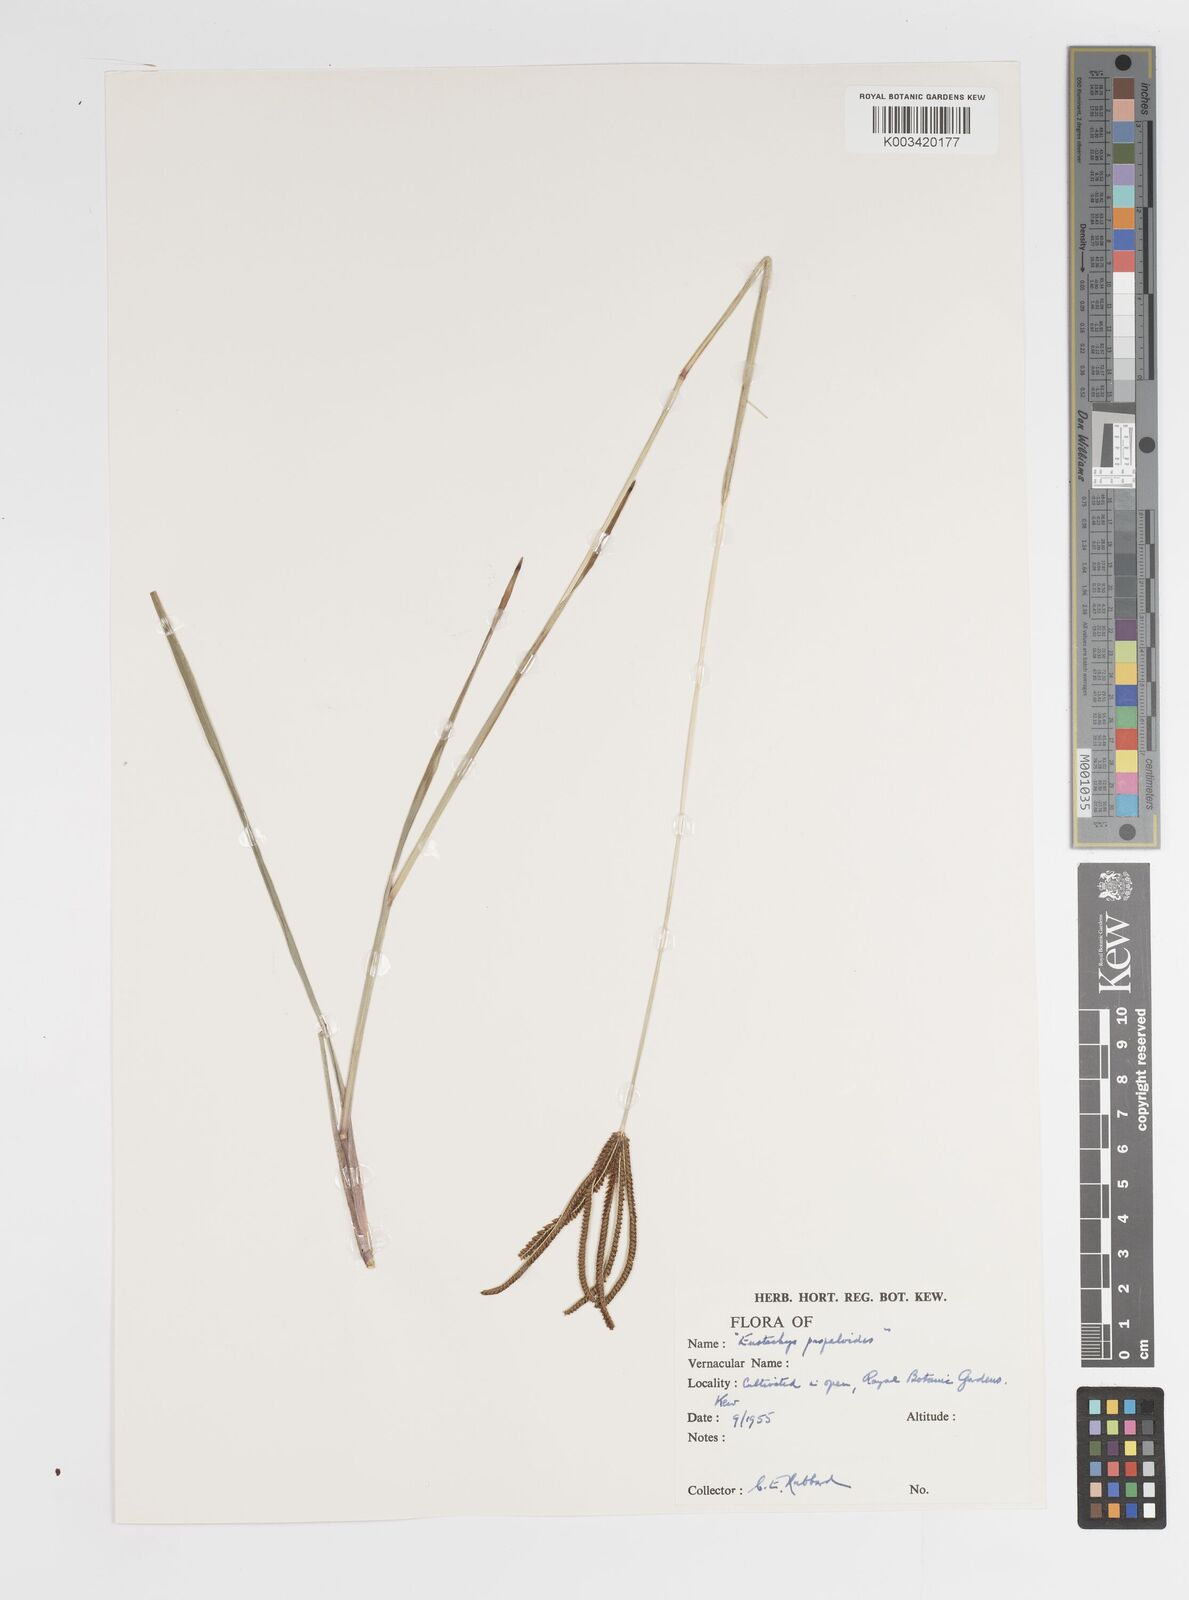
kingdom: Plantae
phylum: Tracheophyta
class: Liliopsida
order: Poales
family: Poaceae
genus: Eustachys
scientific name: Eustachys petraea
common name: Pinewoods fingergrass
